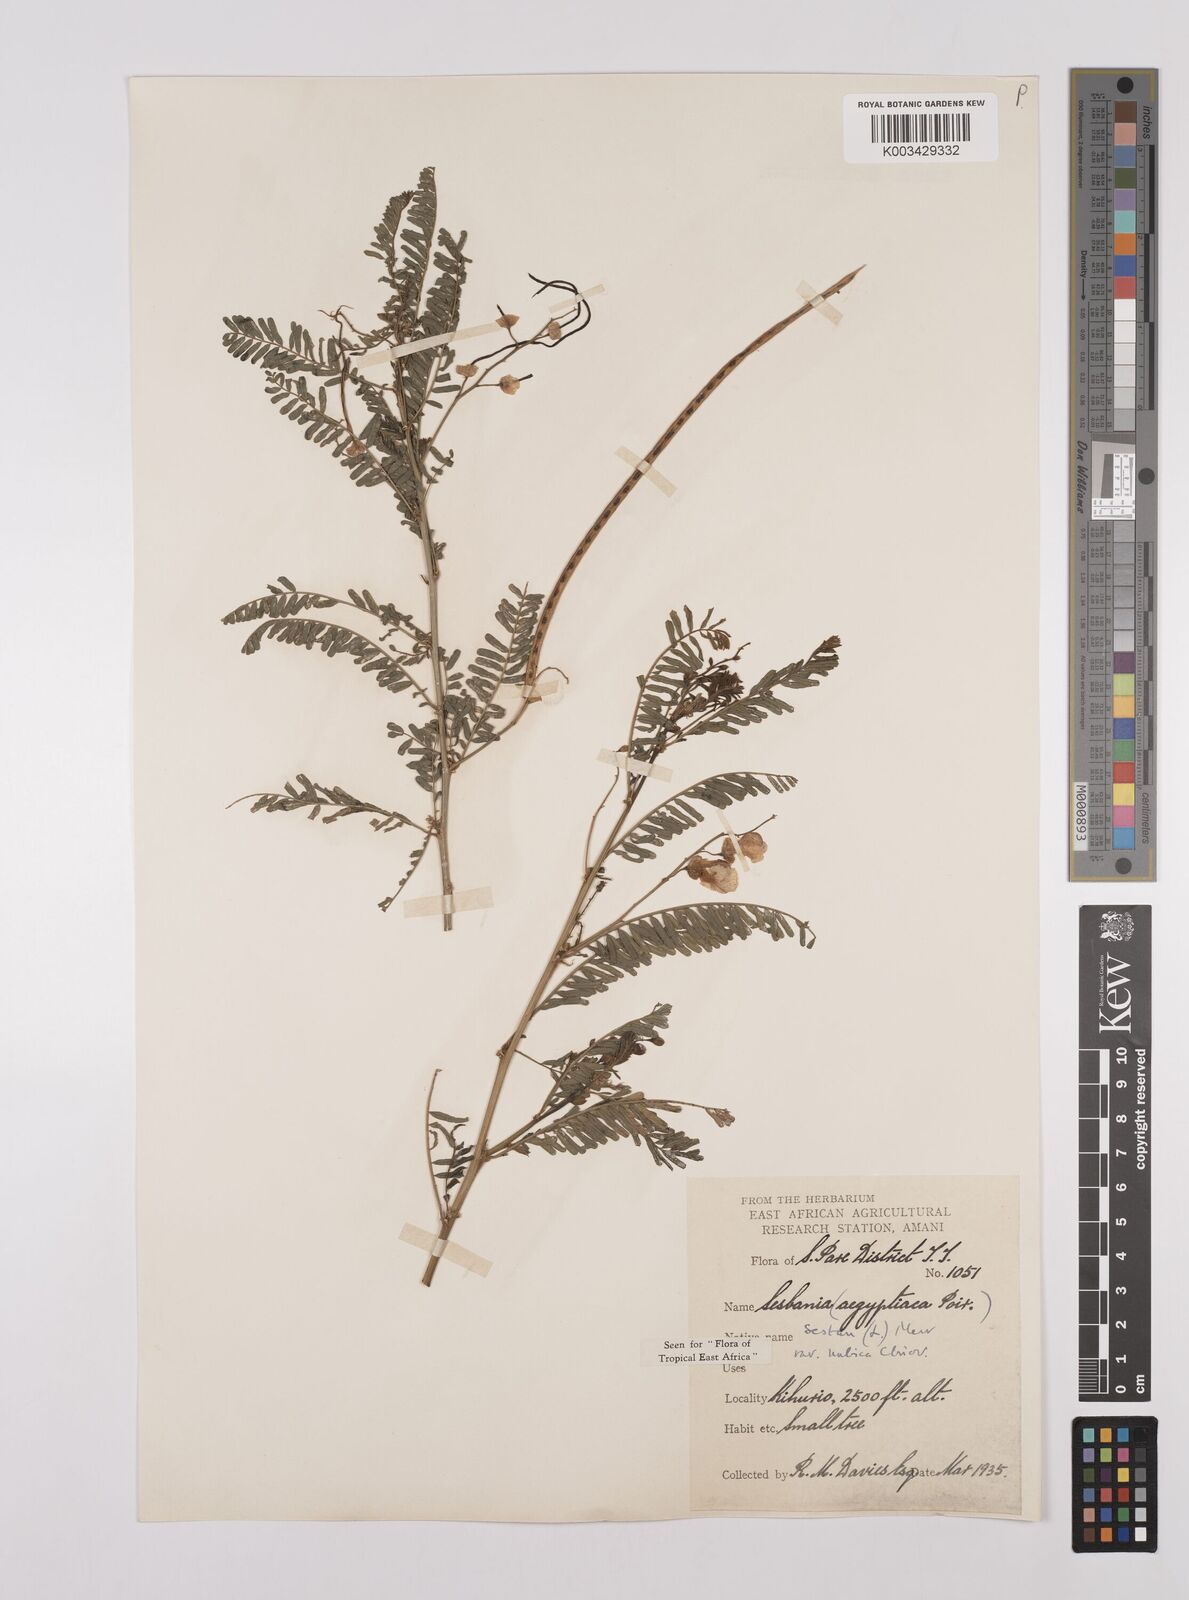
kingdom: Plantae
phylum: Tracheophyta
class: Magnoliopsida
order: Fabales
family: Fabaceae
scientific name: Fabaceae
